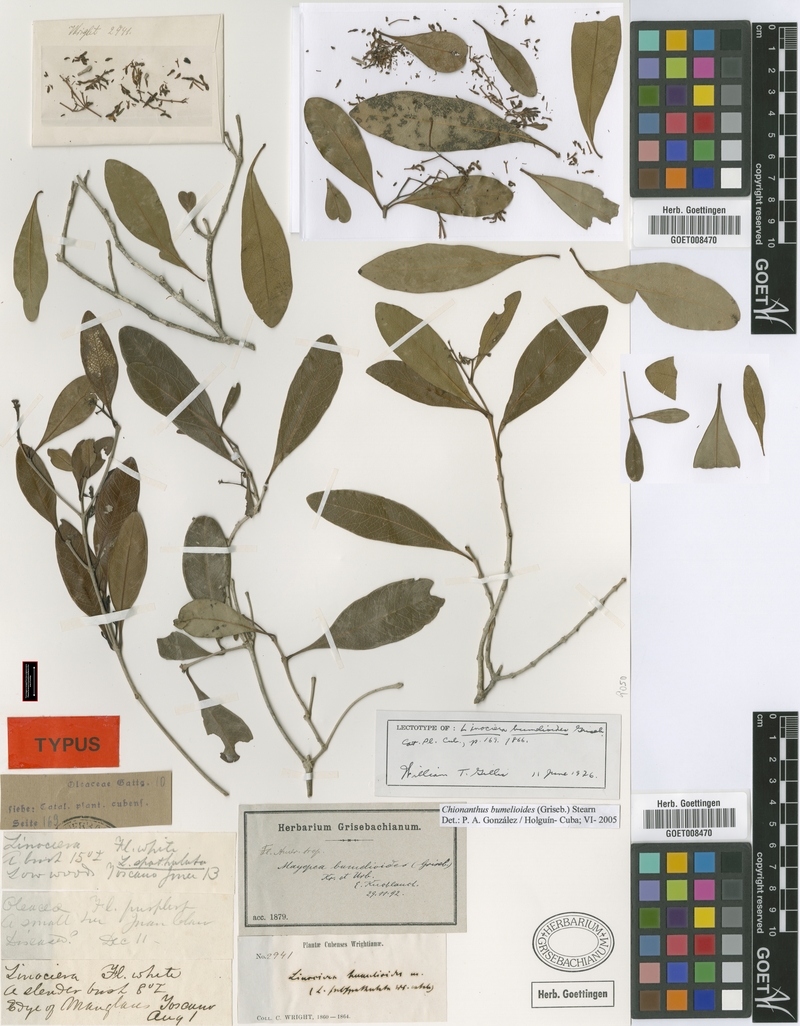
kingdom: Plantae
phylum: Tracheophyta
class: Magnoliopsida
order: Lamiales
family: Oleaceae
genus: Chionanthus
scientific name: Chionanthus bumelioides
